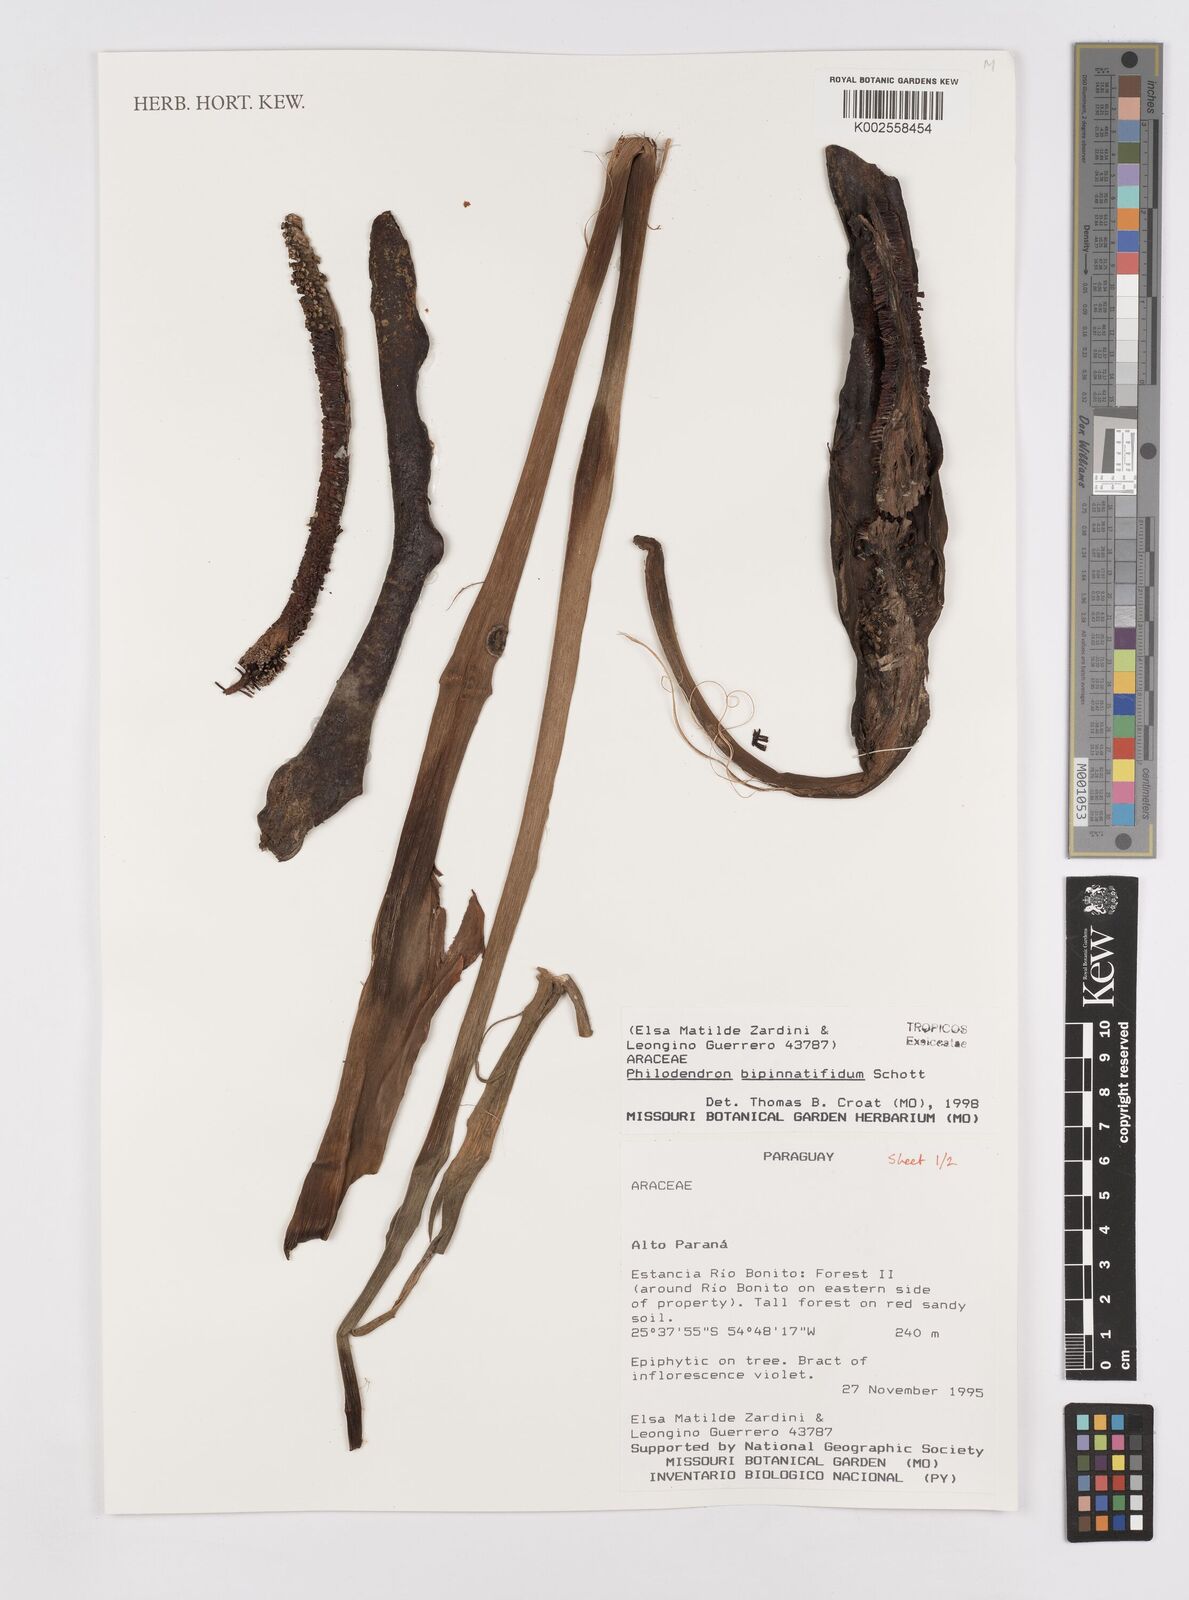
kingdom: Plantae
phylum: Tracheophyta
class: Liliopsida
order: Alismatales
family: Araceae
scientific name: Araceae
